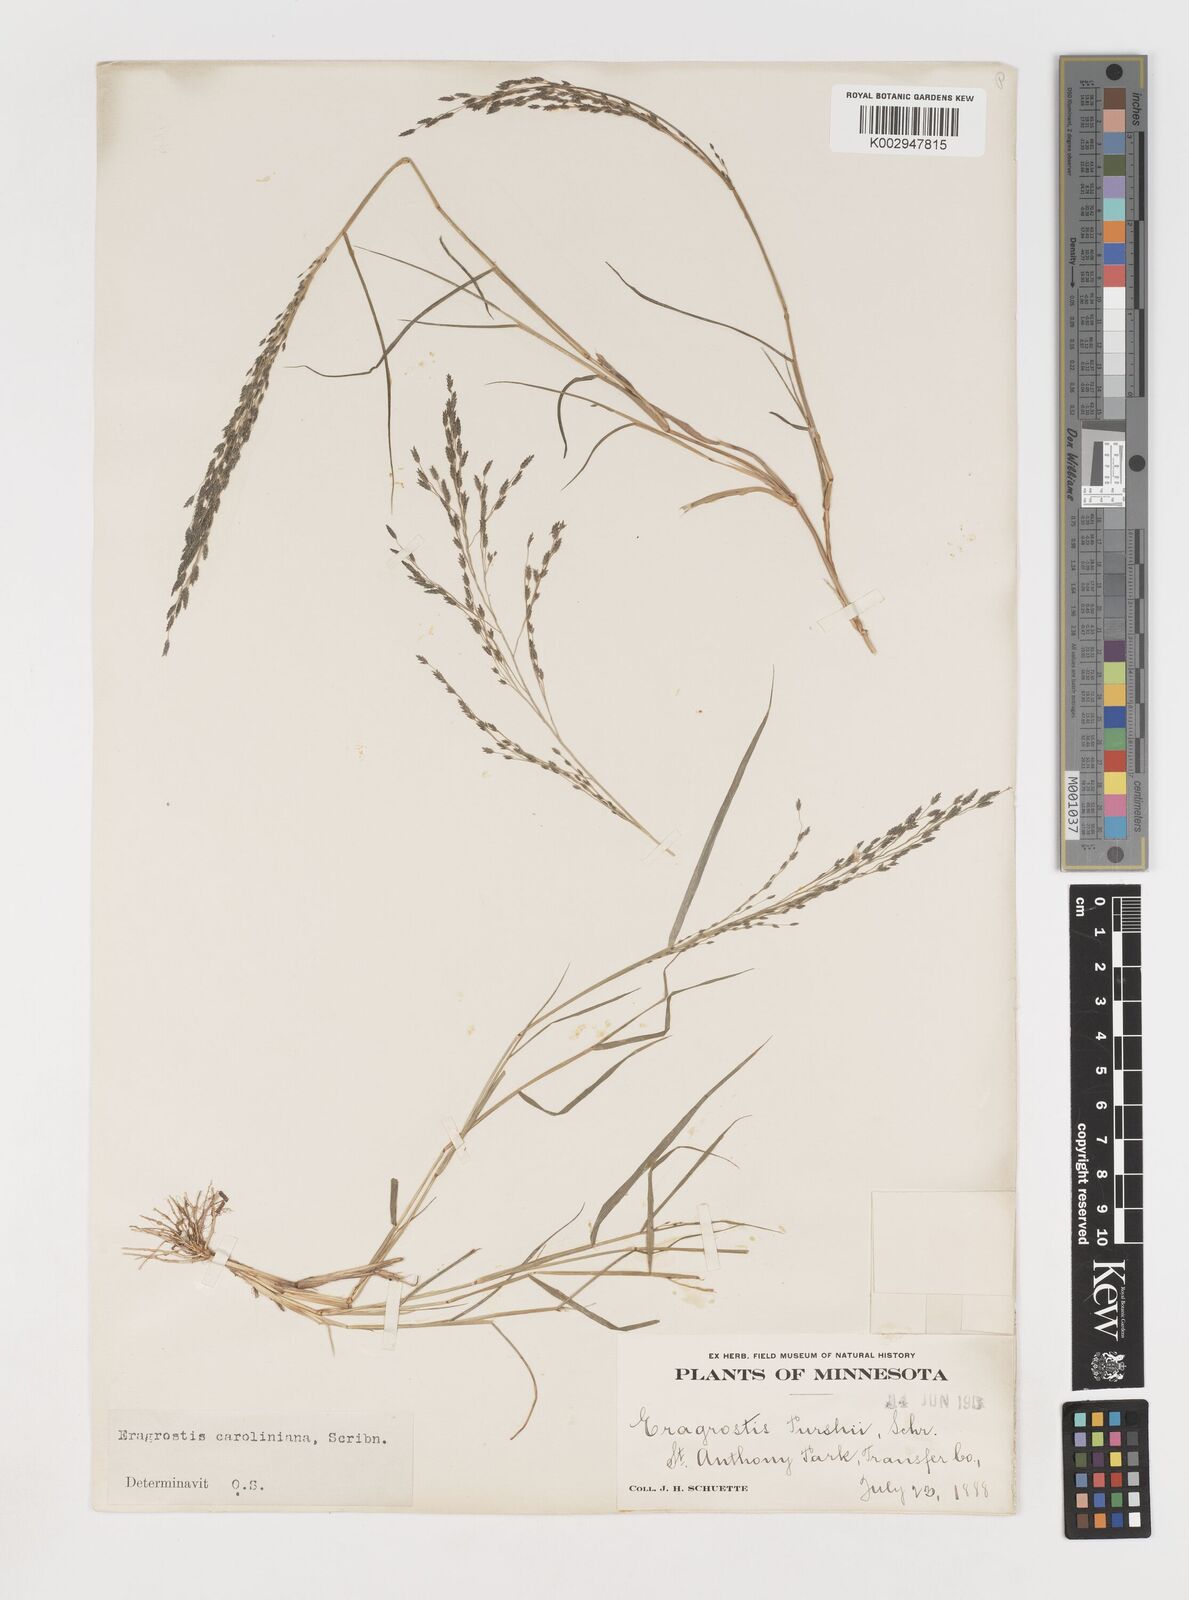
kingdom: Plantae
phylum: Tracheophyta
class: Liliopsida
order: Poales
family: Poaceae
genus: Eragrostis
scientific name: Eragrostis pectinacea
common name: Tufted lovegrass
